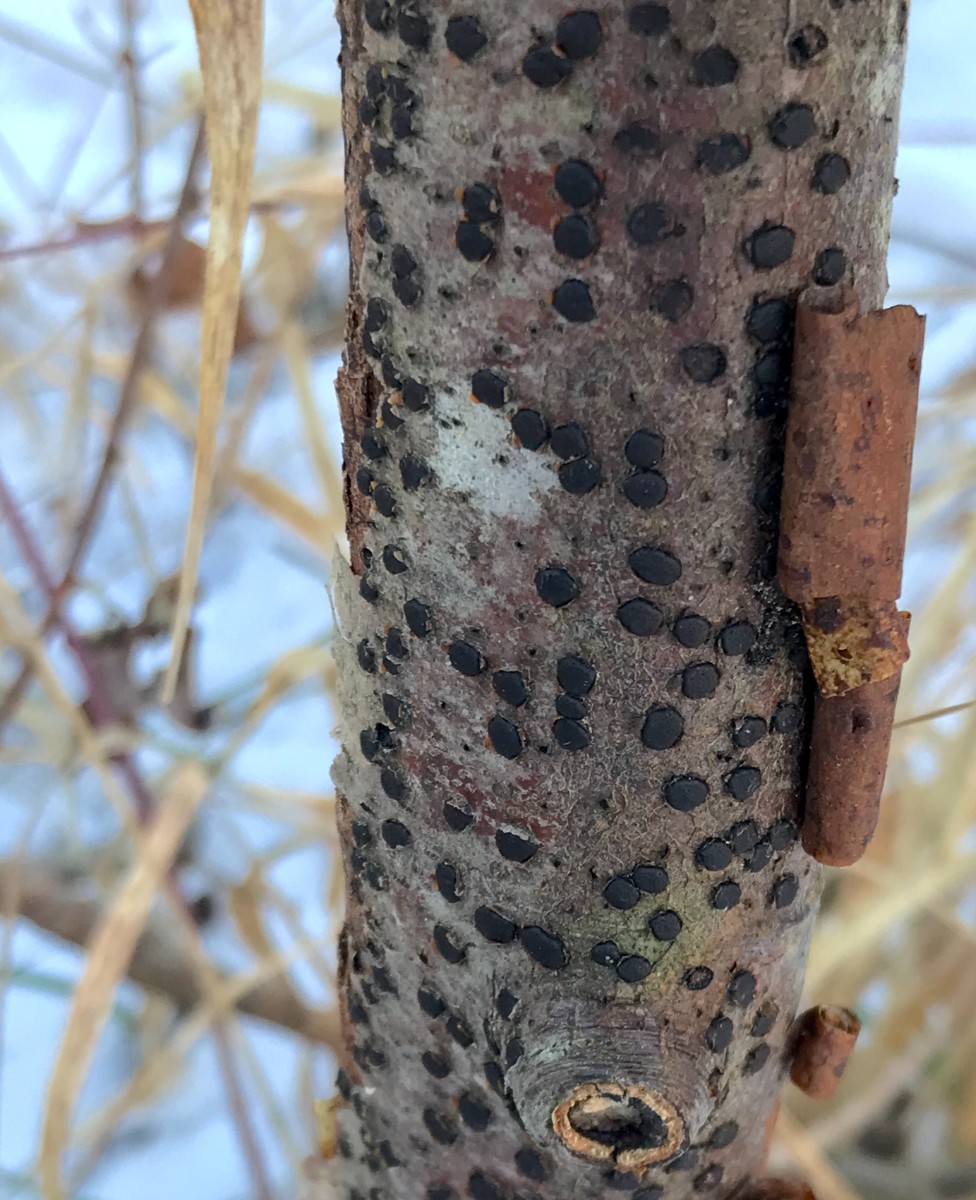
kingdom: Fungi
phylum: Ascomycota
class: Sordariomycetes
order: Xylariales
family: Diatrypaceae
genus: Diatrype
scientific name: Diatrype disciformis
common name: kant-kulskorpe
